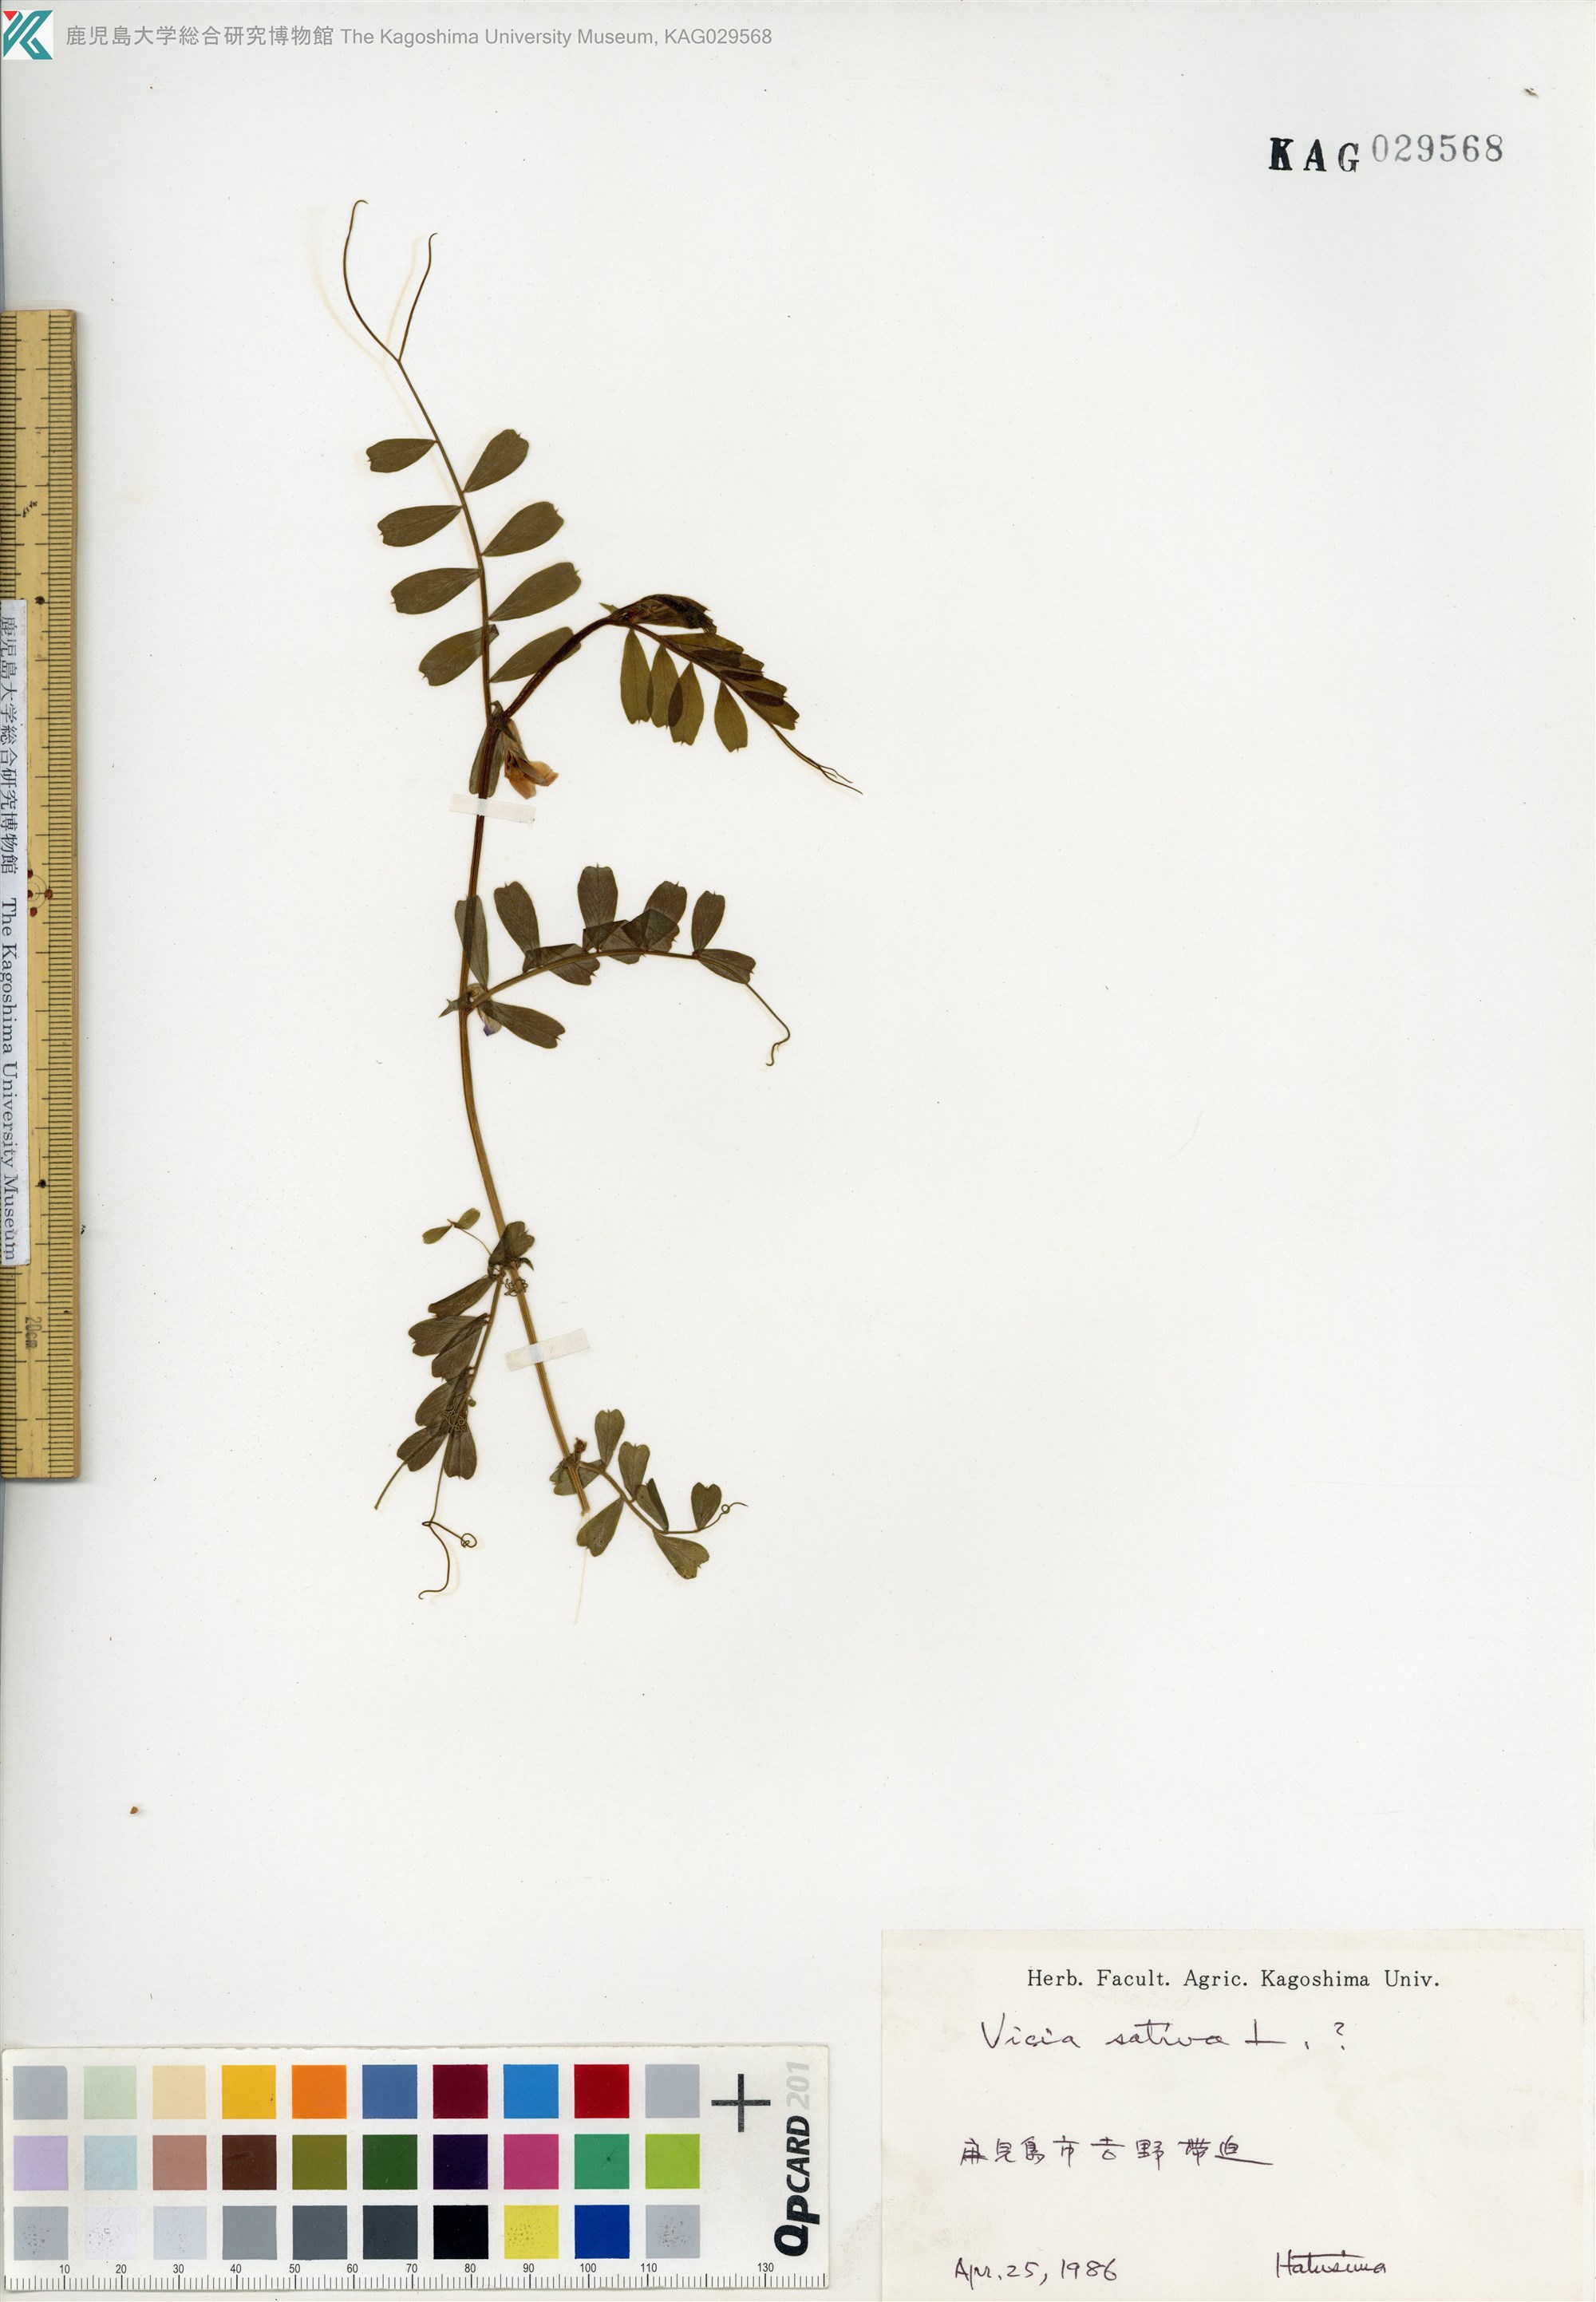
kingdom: Plantae
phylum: Tracheophyta
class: Magnoliopsida
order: Fabales
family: Fabaceae
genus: Vicia
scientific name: Vicia sativa
